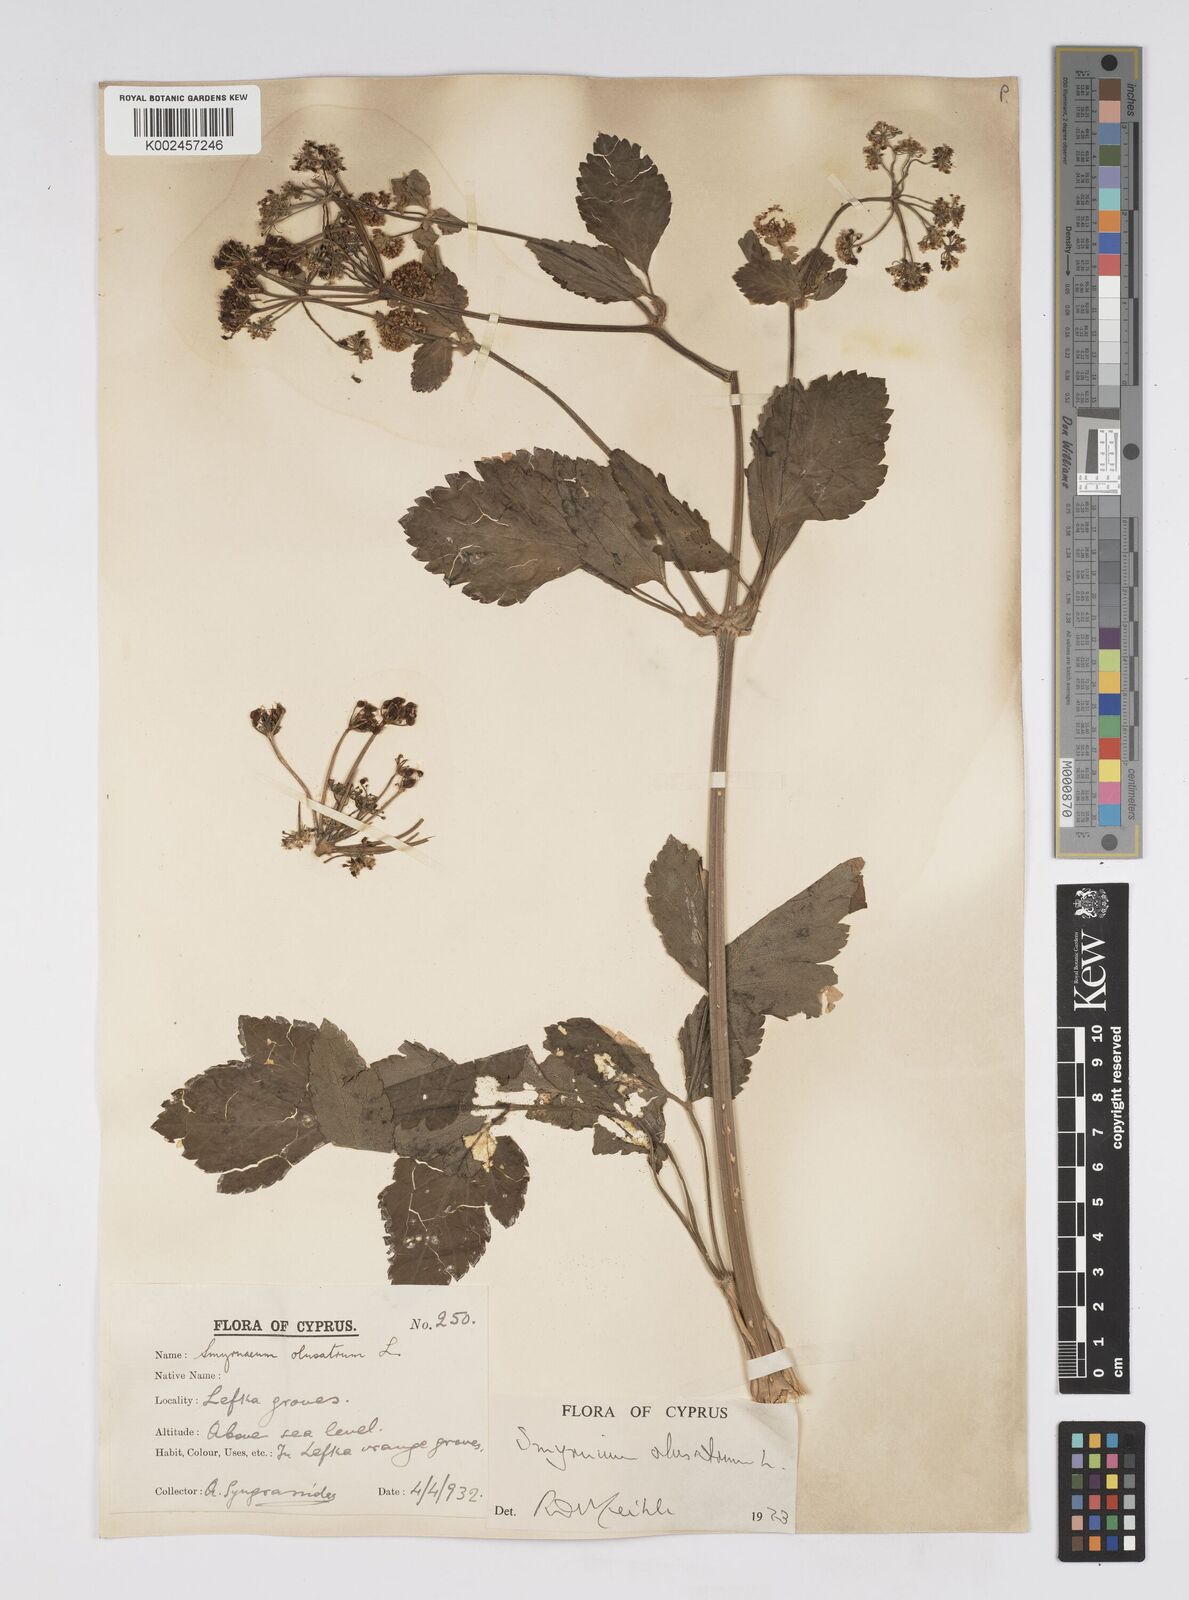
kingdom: Plantae
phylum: Tracheophyta
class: Magnoliopsida
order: Apiales
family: Apiaceae
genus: Smyrnium
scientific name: Smyrnium olusatrum
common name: Alexanders
